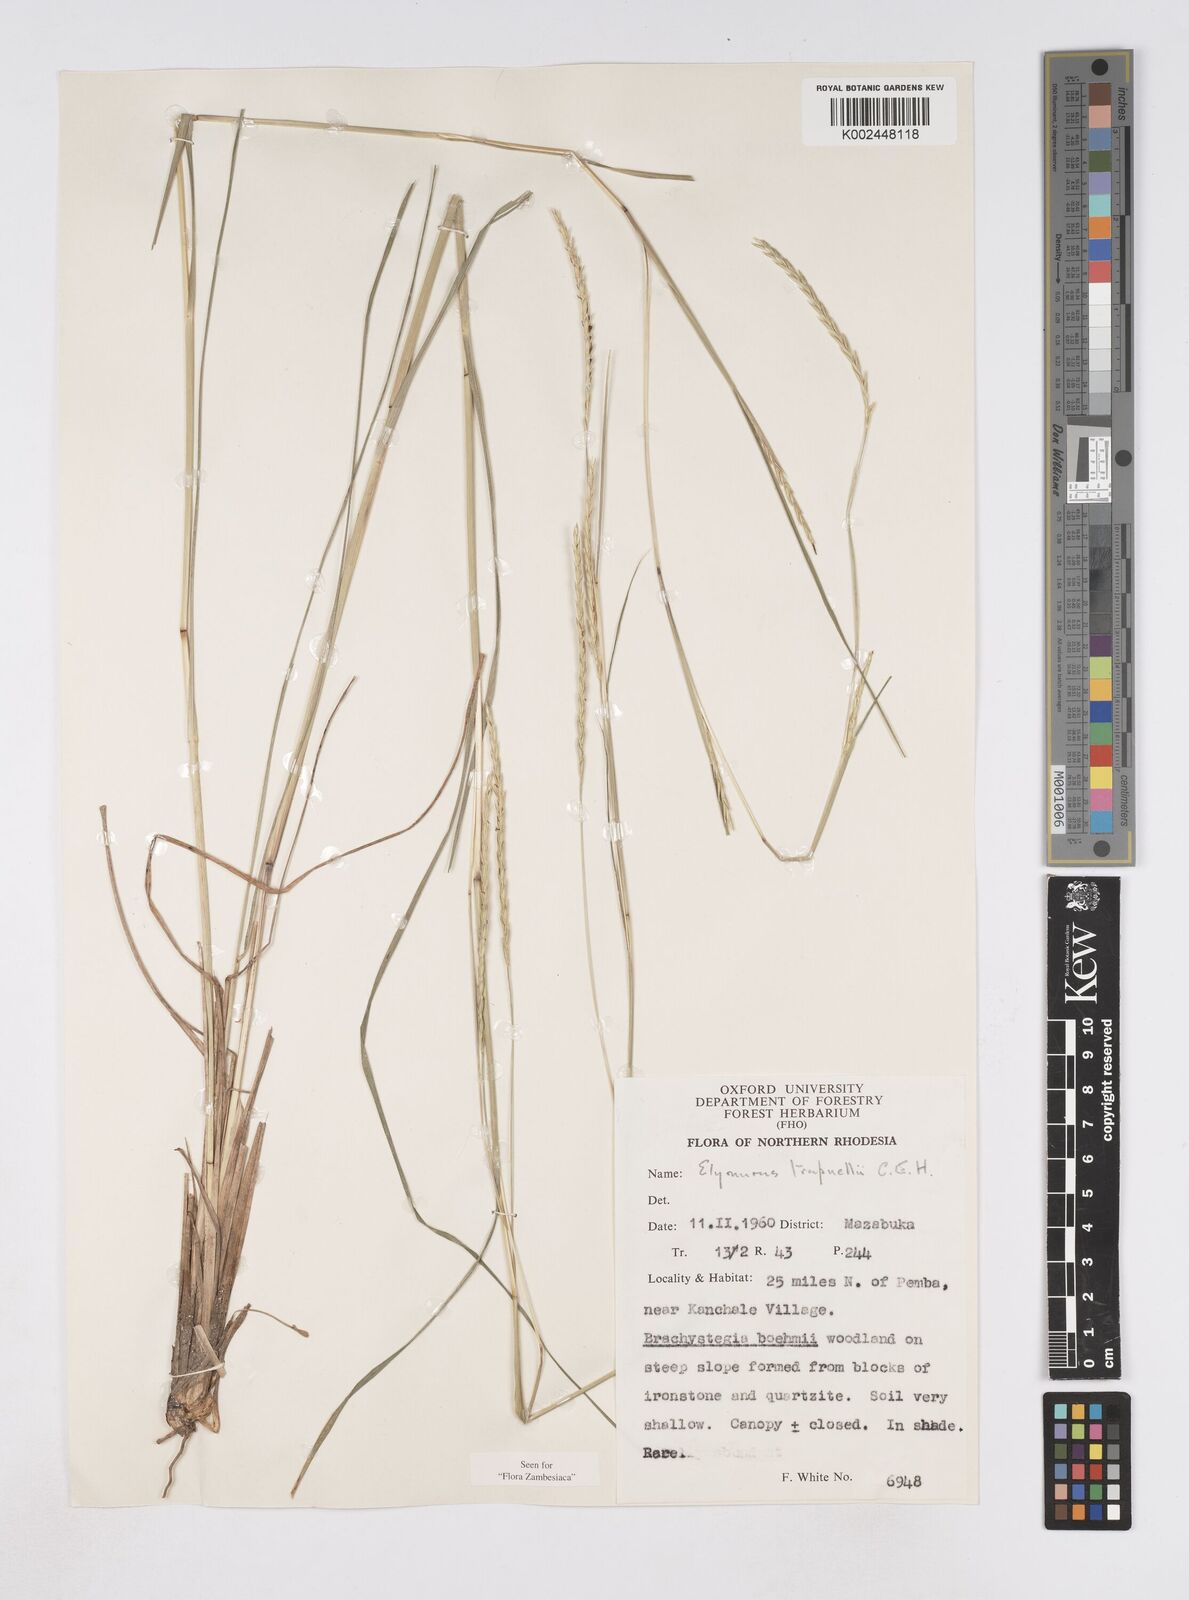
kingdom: Plantae
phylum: Tracheophyta
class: Liliopsida
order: Poales
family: Poaceae
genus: Elionurus
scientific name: Elionurus tripsacoides
